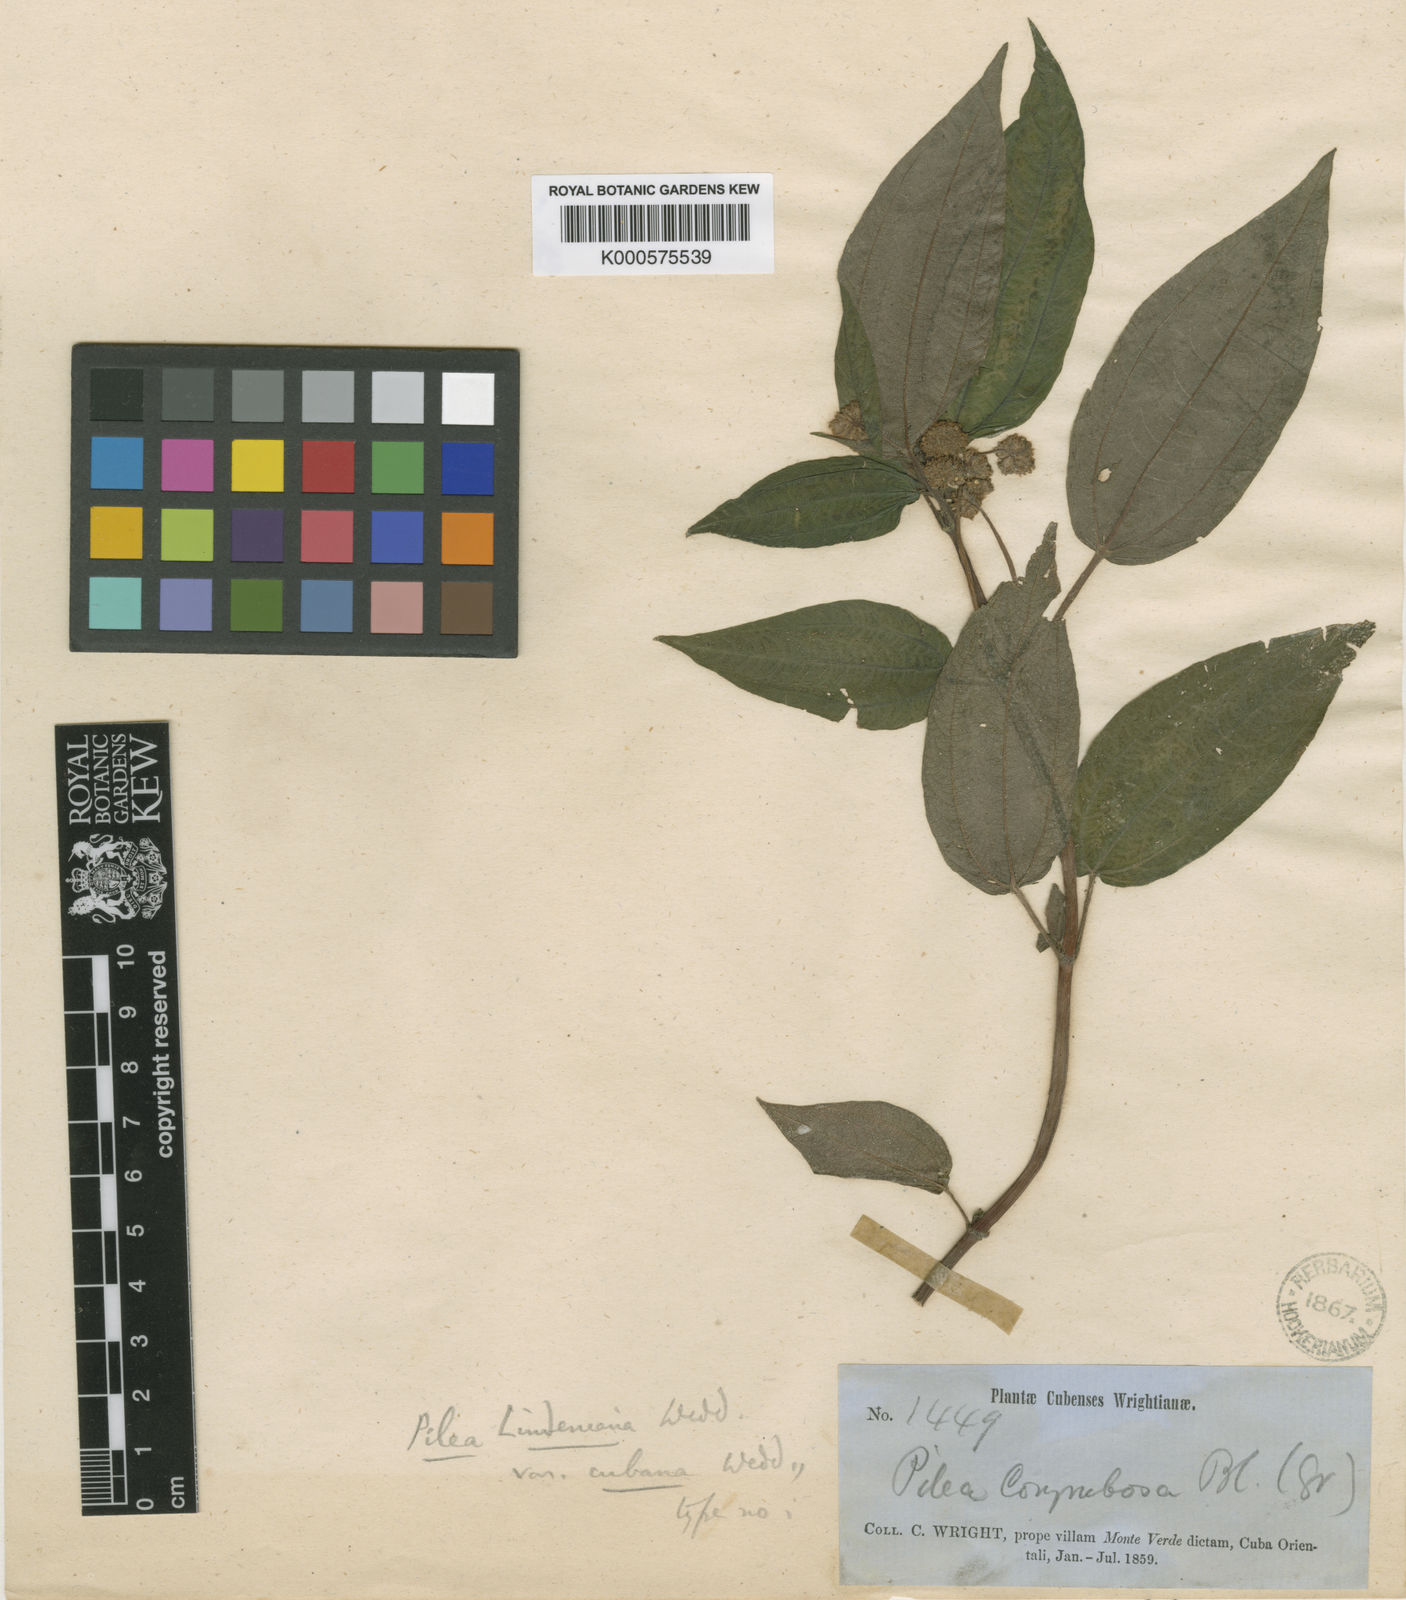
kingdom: Plantae
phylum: Tracheophyta
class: Magnoliopsida
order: Rosales
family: Urticaceae
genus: Pilea
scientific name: Pilea lindeniana
